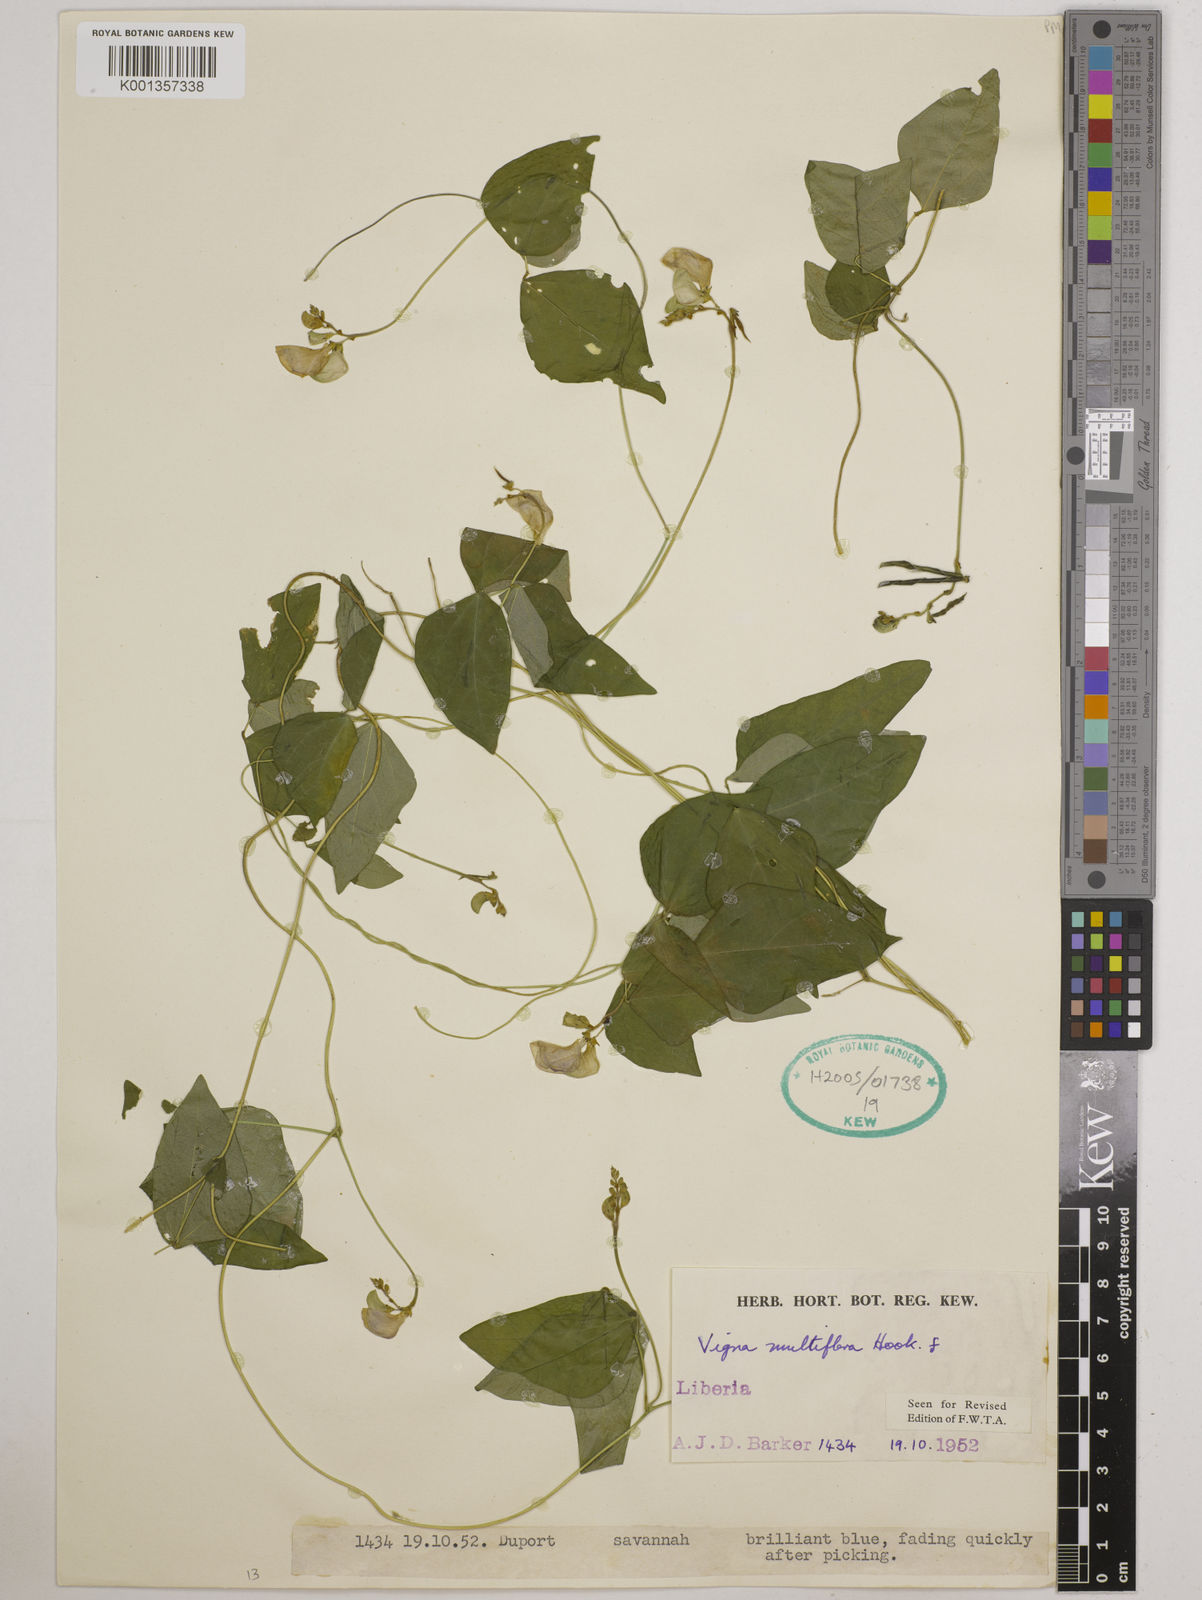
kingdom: Plantae
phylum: Tracheophyta
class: Magnoliopsida
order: Fabales
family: Fabaceae
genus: Vigna
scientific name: Vigna gracilis
